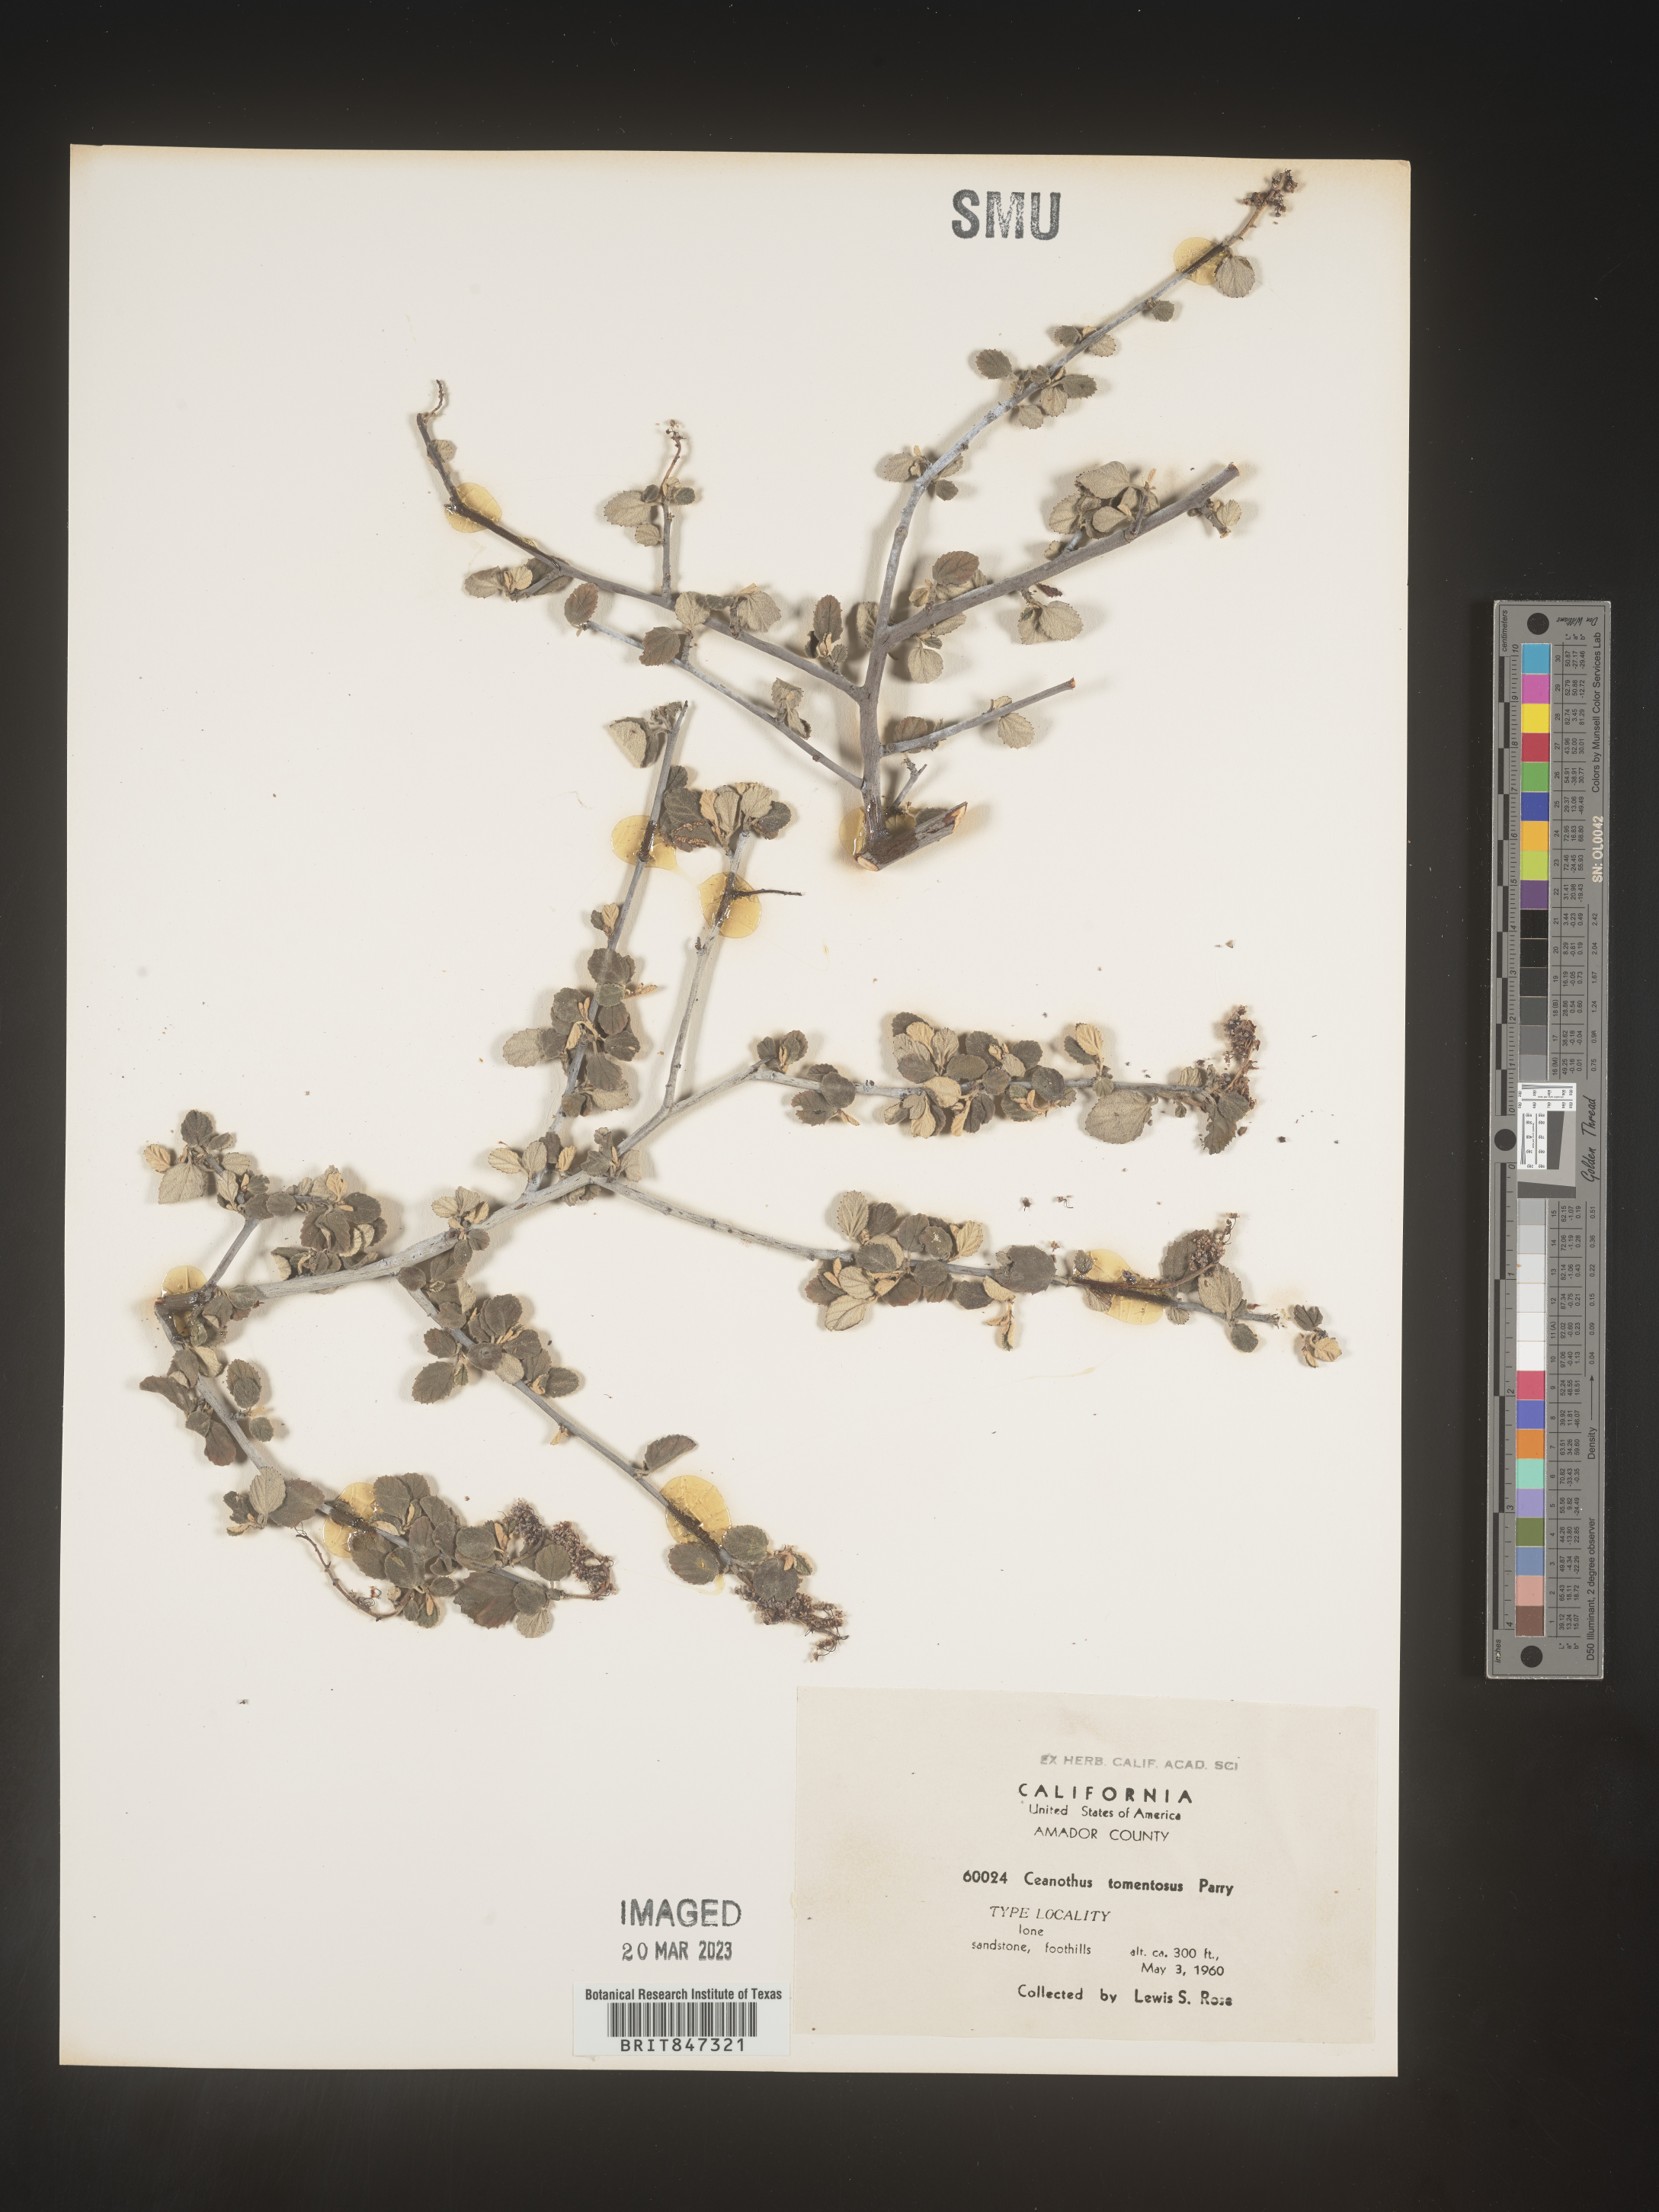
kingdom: Plantae
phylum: Tracheophyta
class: Magnoliopsida
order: Rosales
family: Rhamnaceae
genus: Ceanothus
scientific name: Ceanothus
